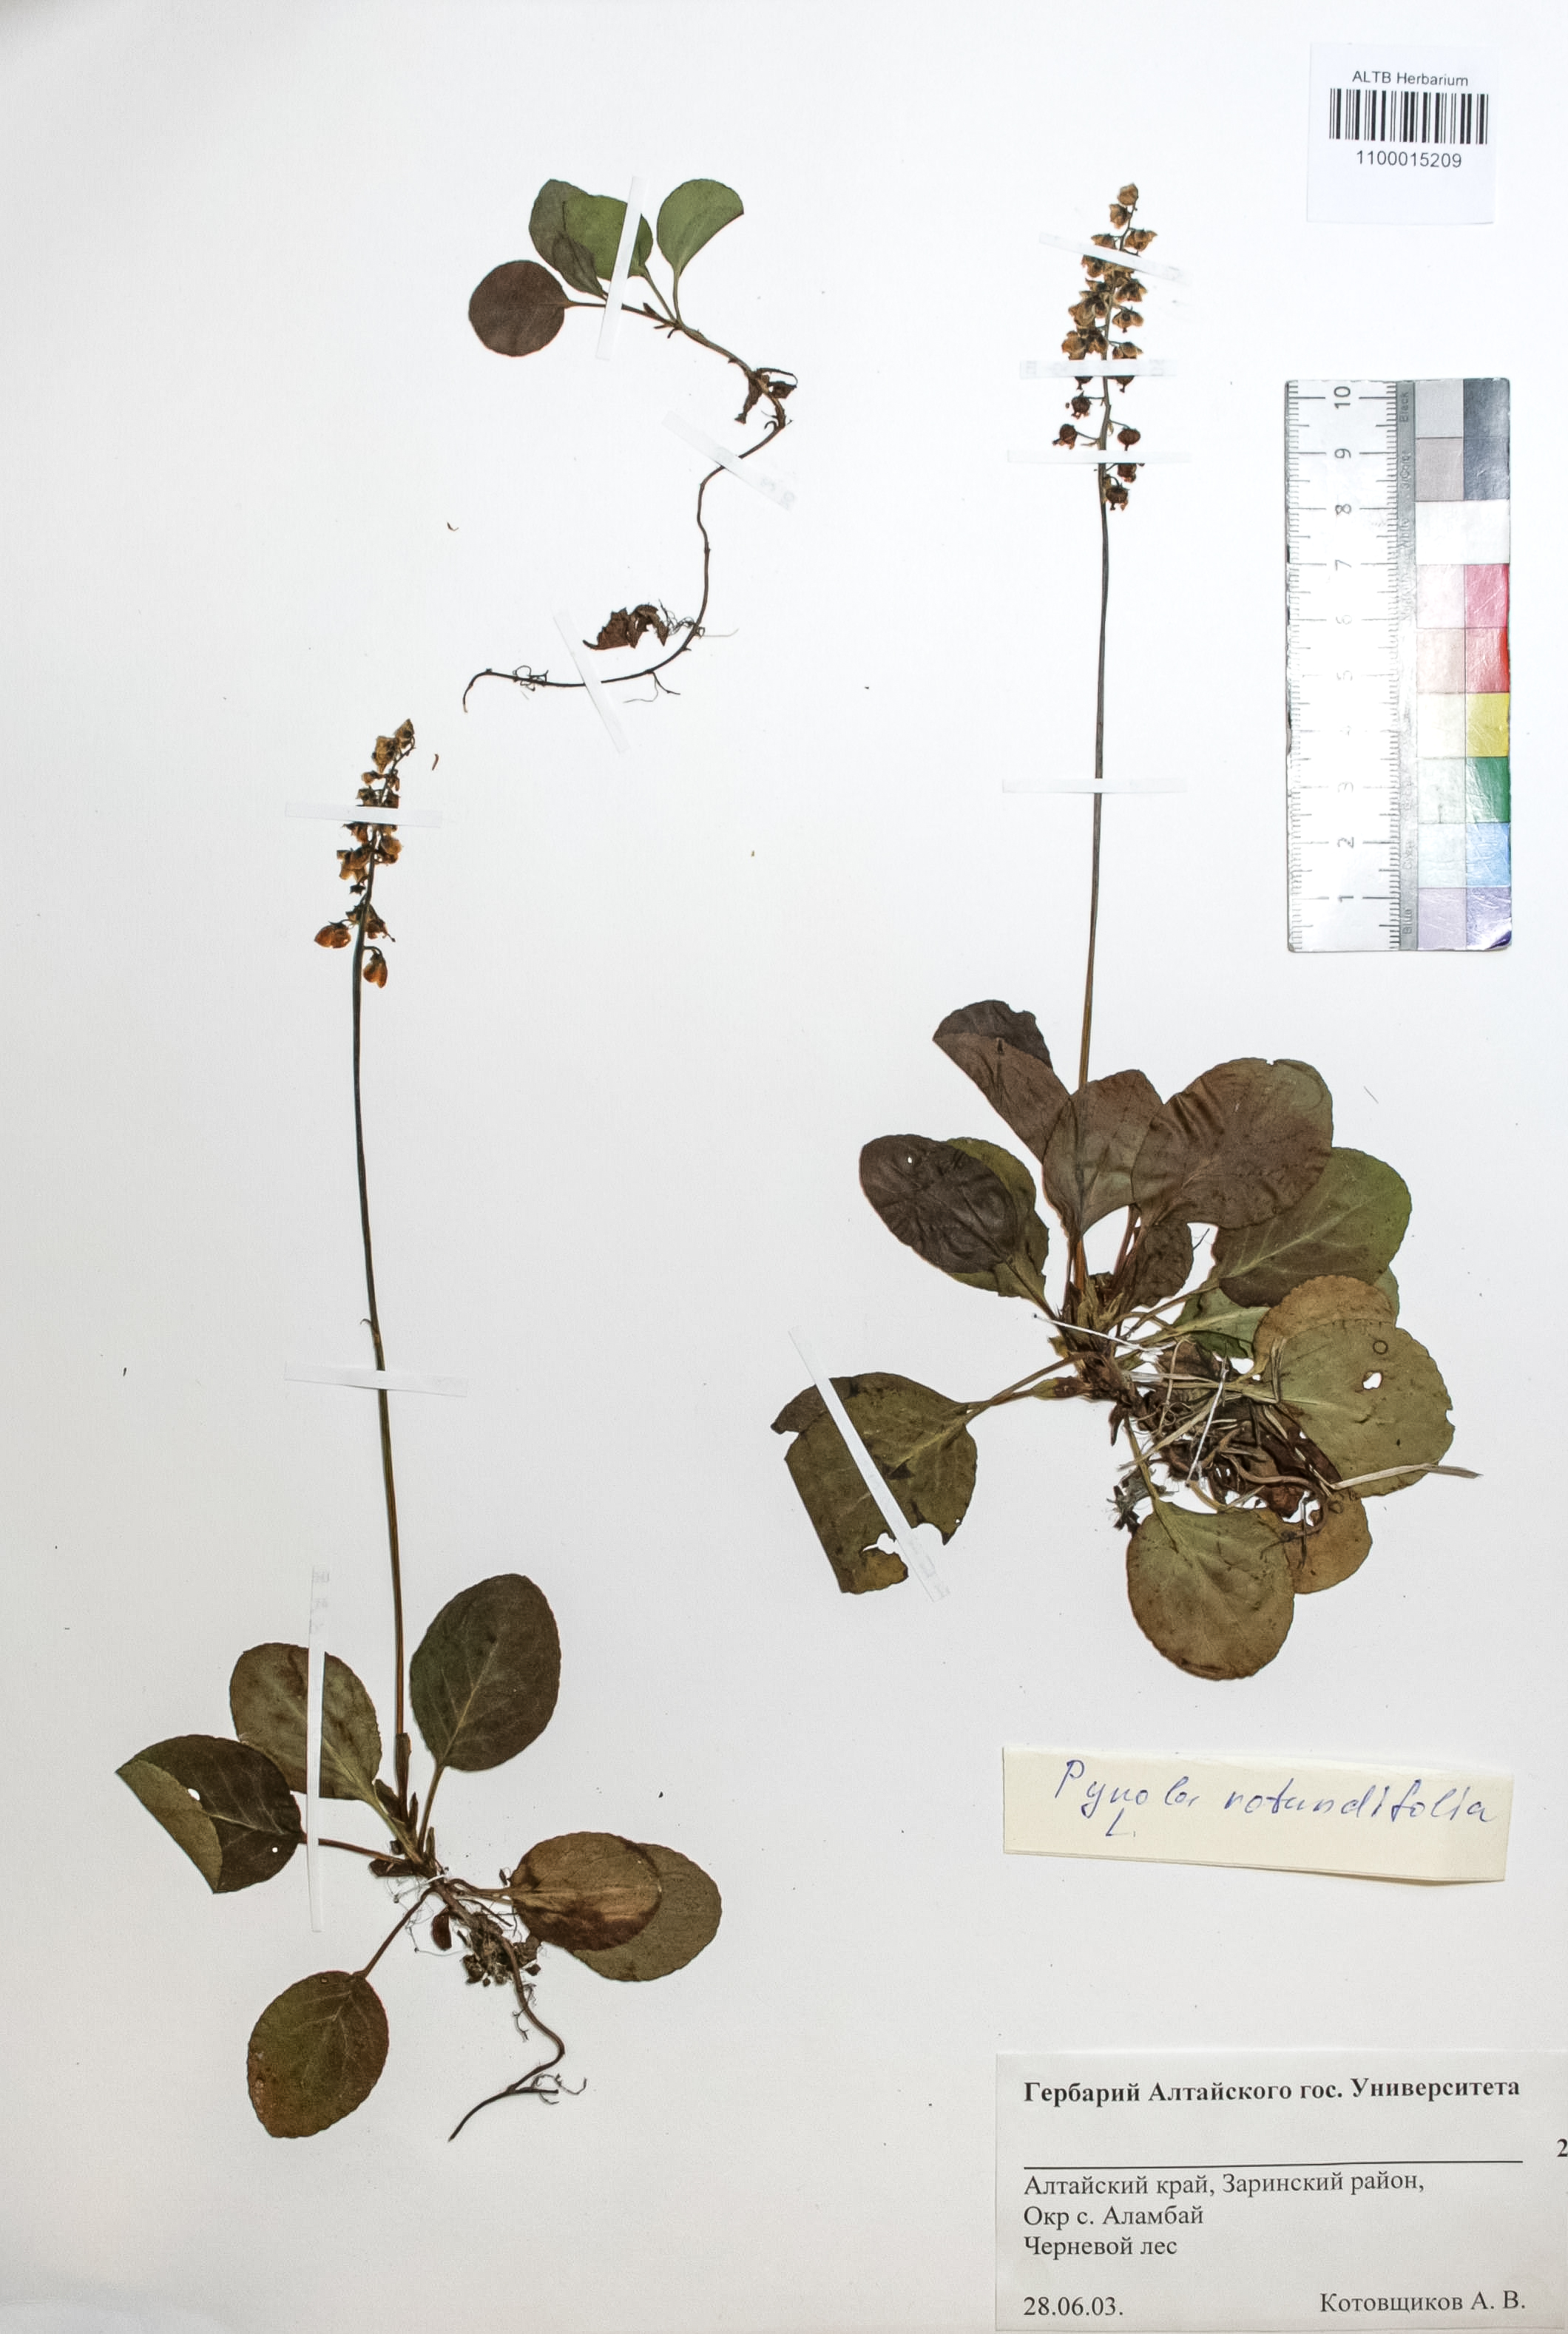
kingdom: Plantae
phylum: Tracheophyta
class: Magnoliopsida
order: Ericales
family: Ericaceae
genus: Pyrola
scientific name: Pyrola rotundifolia
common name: Round-leaved wintergreen
